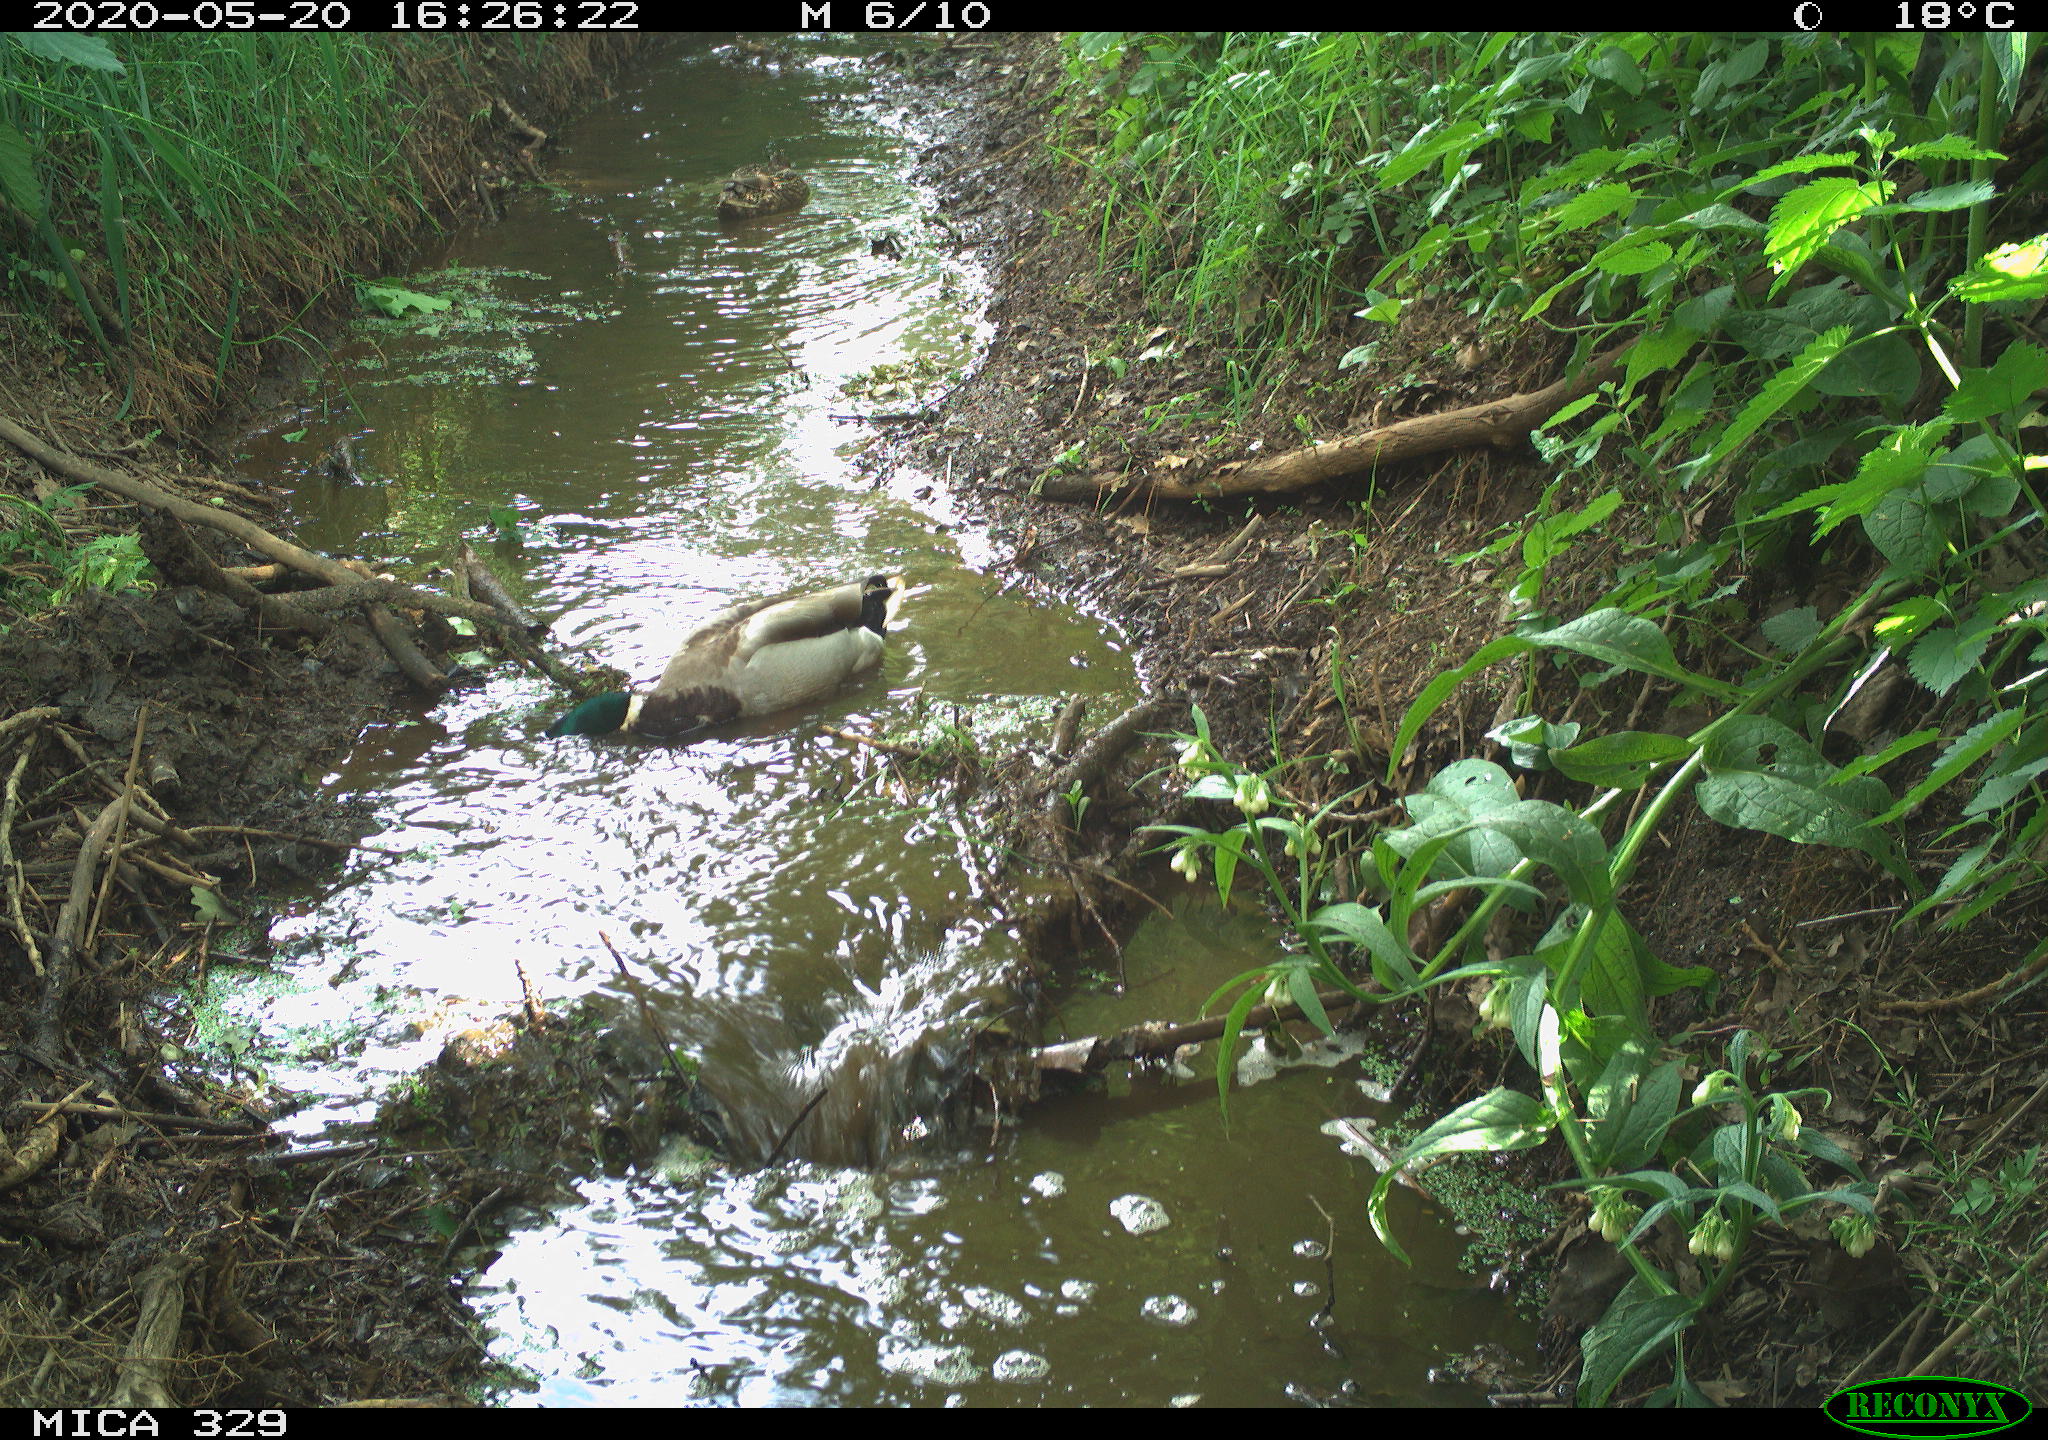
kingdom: Animalia
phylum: Chordata
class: Aves
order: Anseriformes
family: Anatidae
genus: Anas
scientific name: Anas platyrhynchos
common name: Mallard
